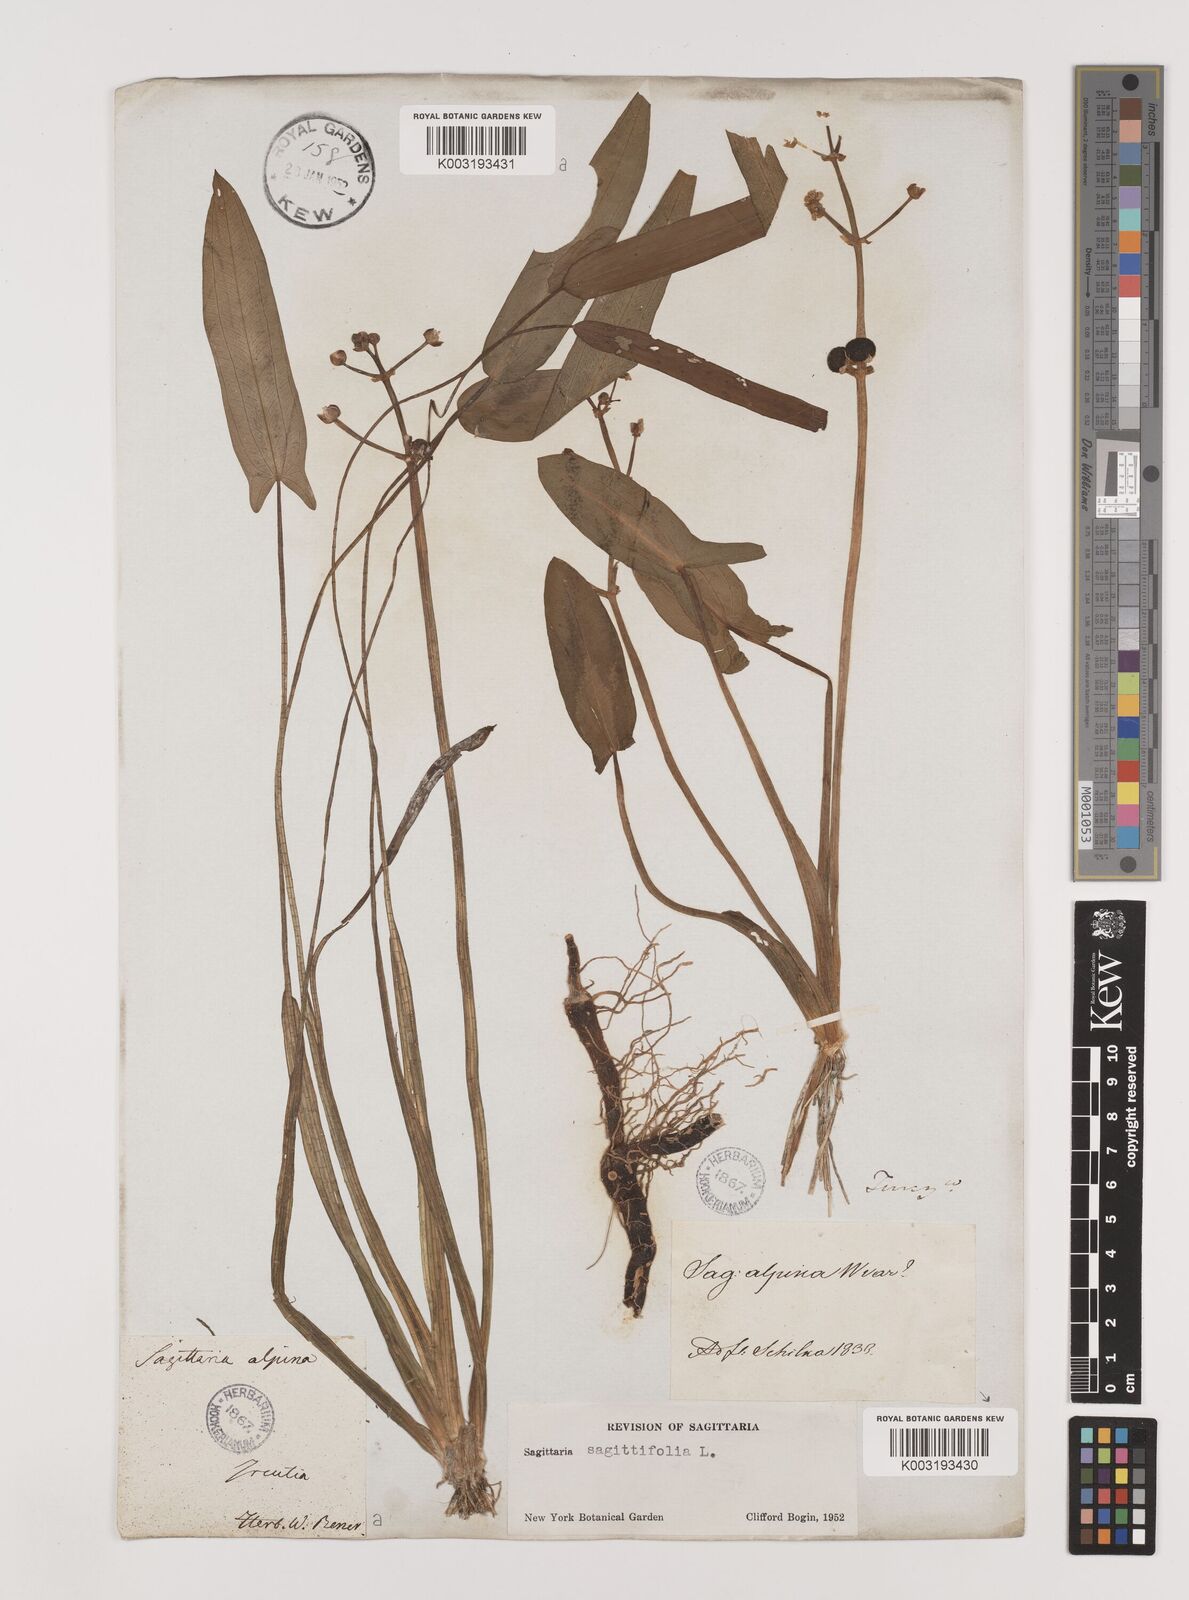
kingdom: Plantae
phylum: Tracheophyta
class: Liliopsida
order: Alismatales
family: Alismataceae
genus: Sagittaria
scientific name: Sagittaria natans
